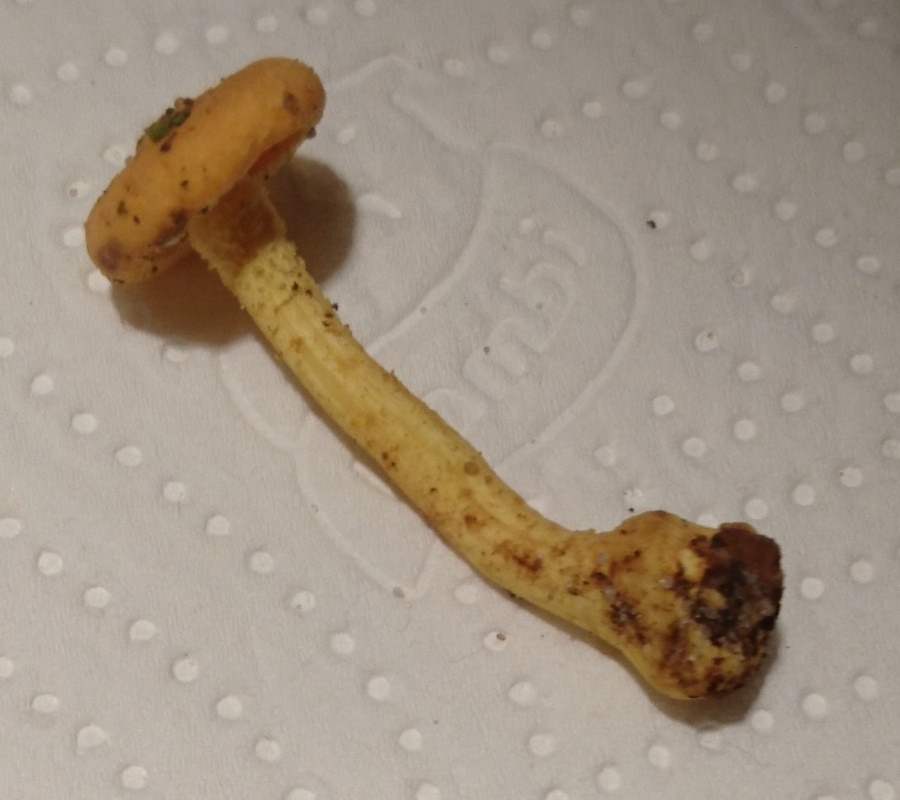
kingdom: Fungi
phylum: Basidiomycota
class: Agaricomycetes
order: Agaricales
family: Strophariaceae
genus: Pholiota
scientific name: Pholiota
